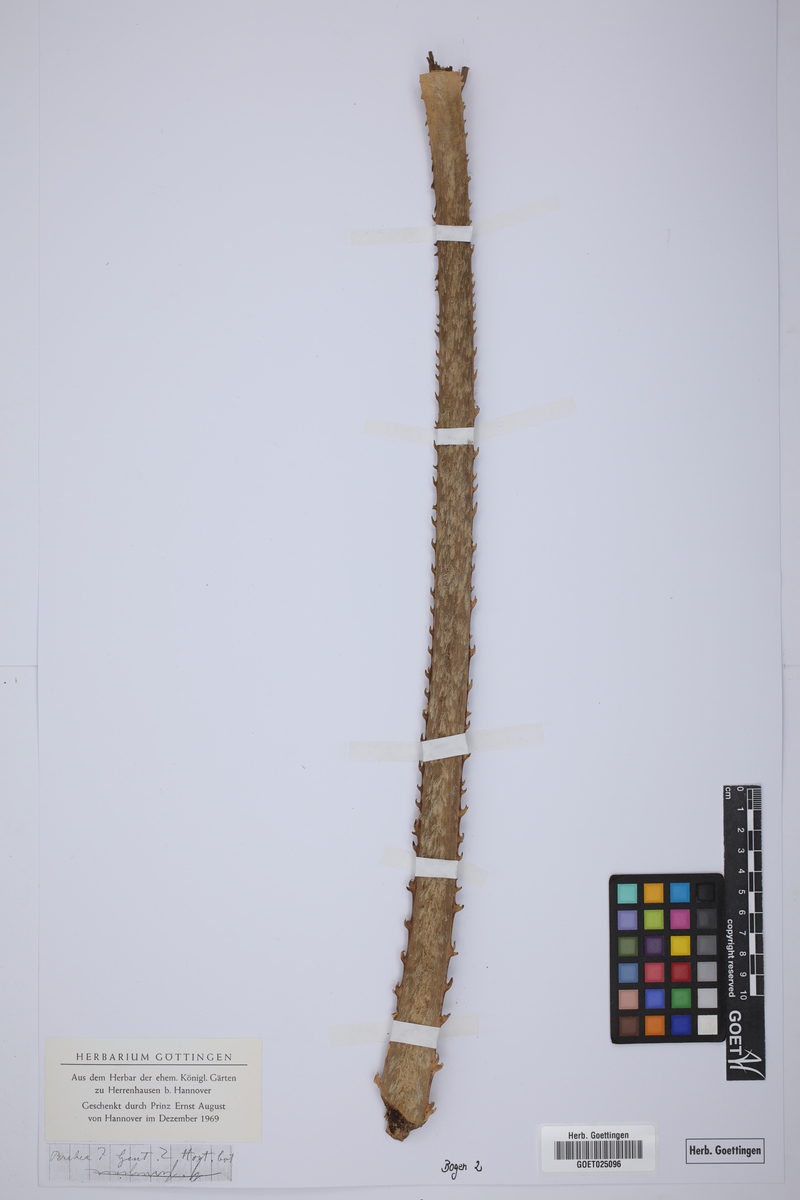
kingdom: Plantae
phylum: Tracheophyta
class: Liliopsida
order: Arecales
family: Arecaceae
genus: Brahea
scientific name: Brahea
